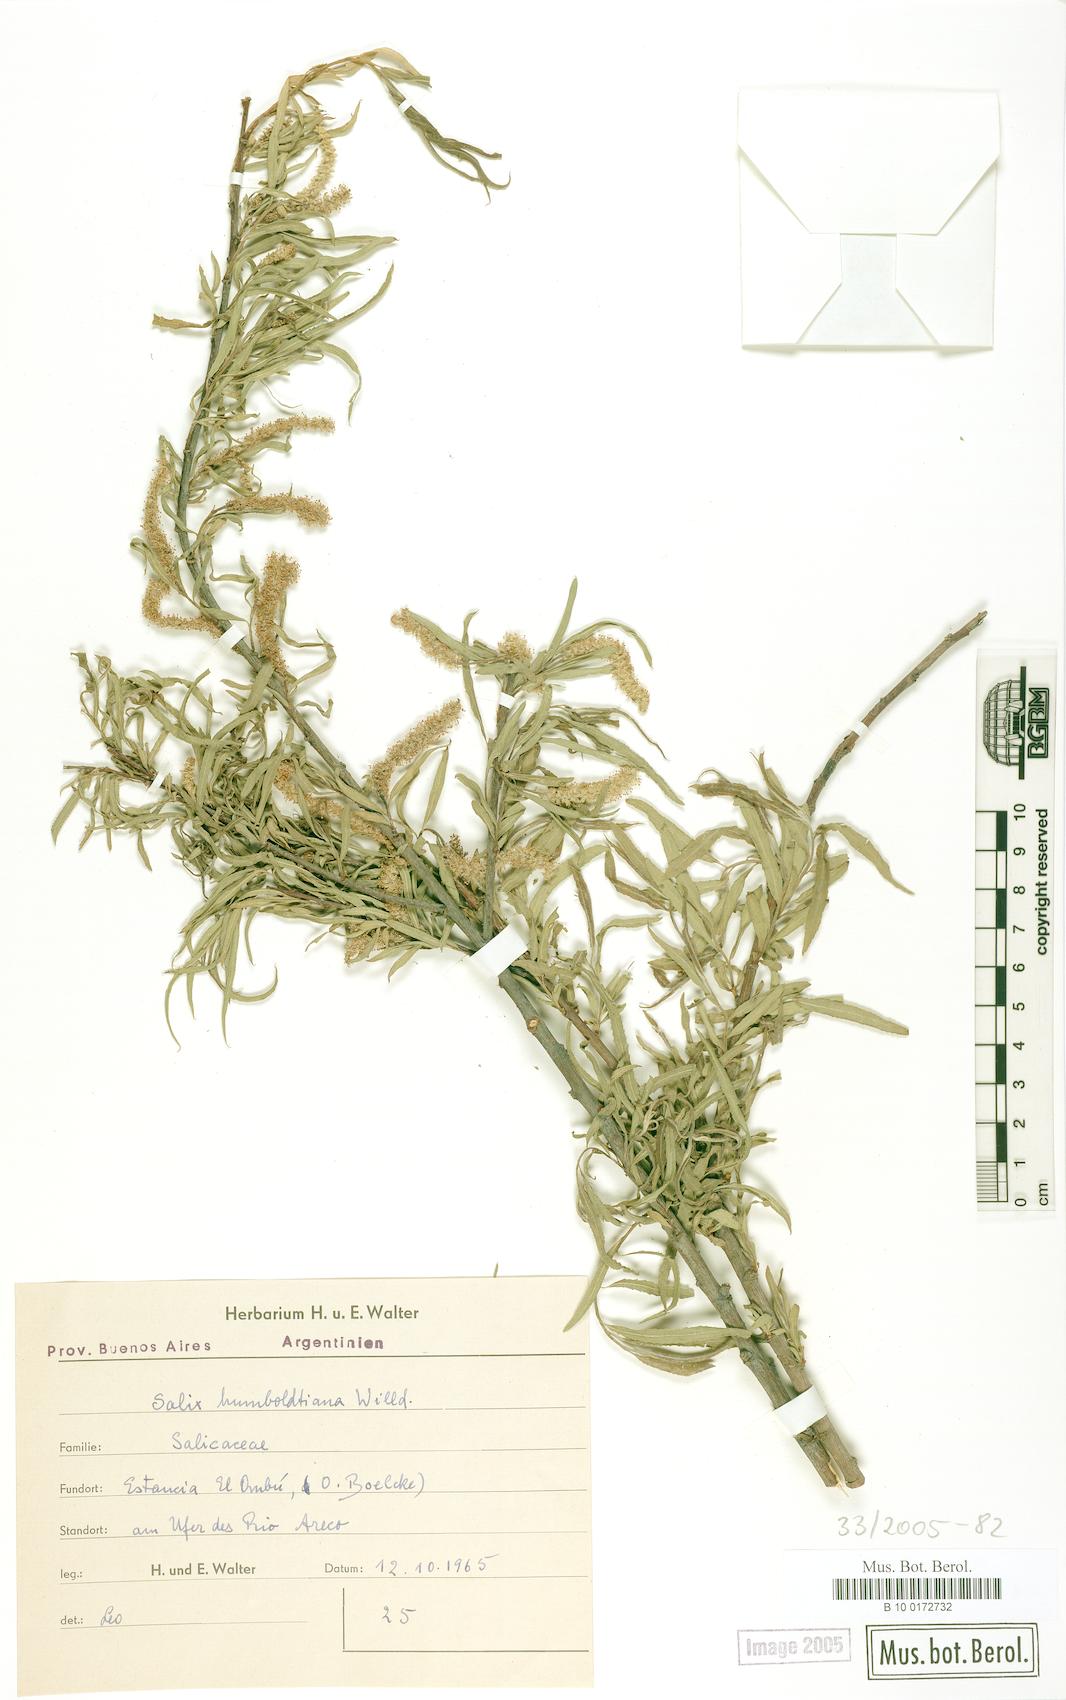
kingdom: Plantae
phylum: Tracheophyta
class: Magnoliopsida
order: Malpighiales
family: Salicaceae
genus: Salix
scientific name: Salix humboldtiana
